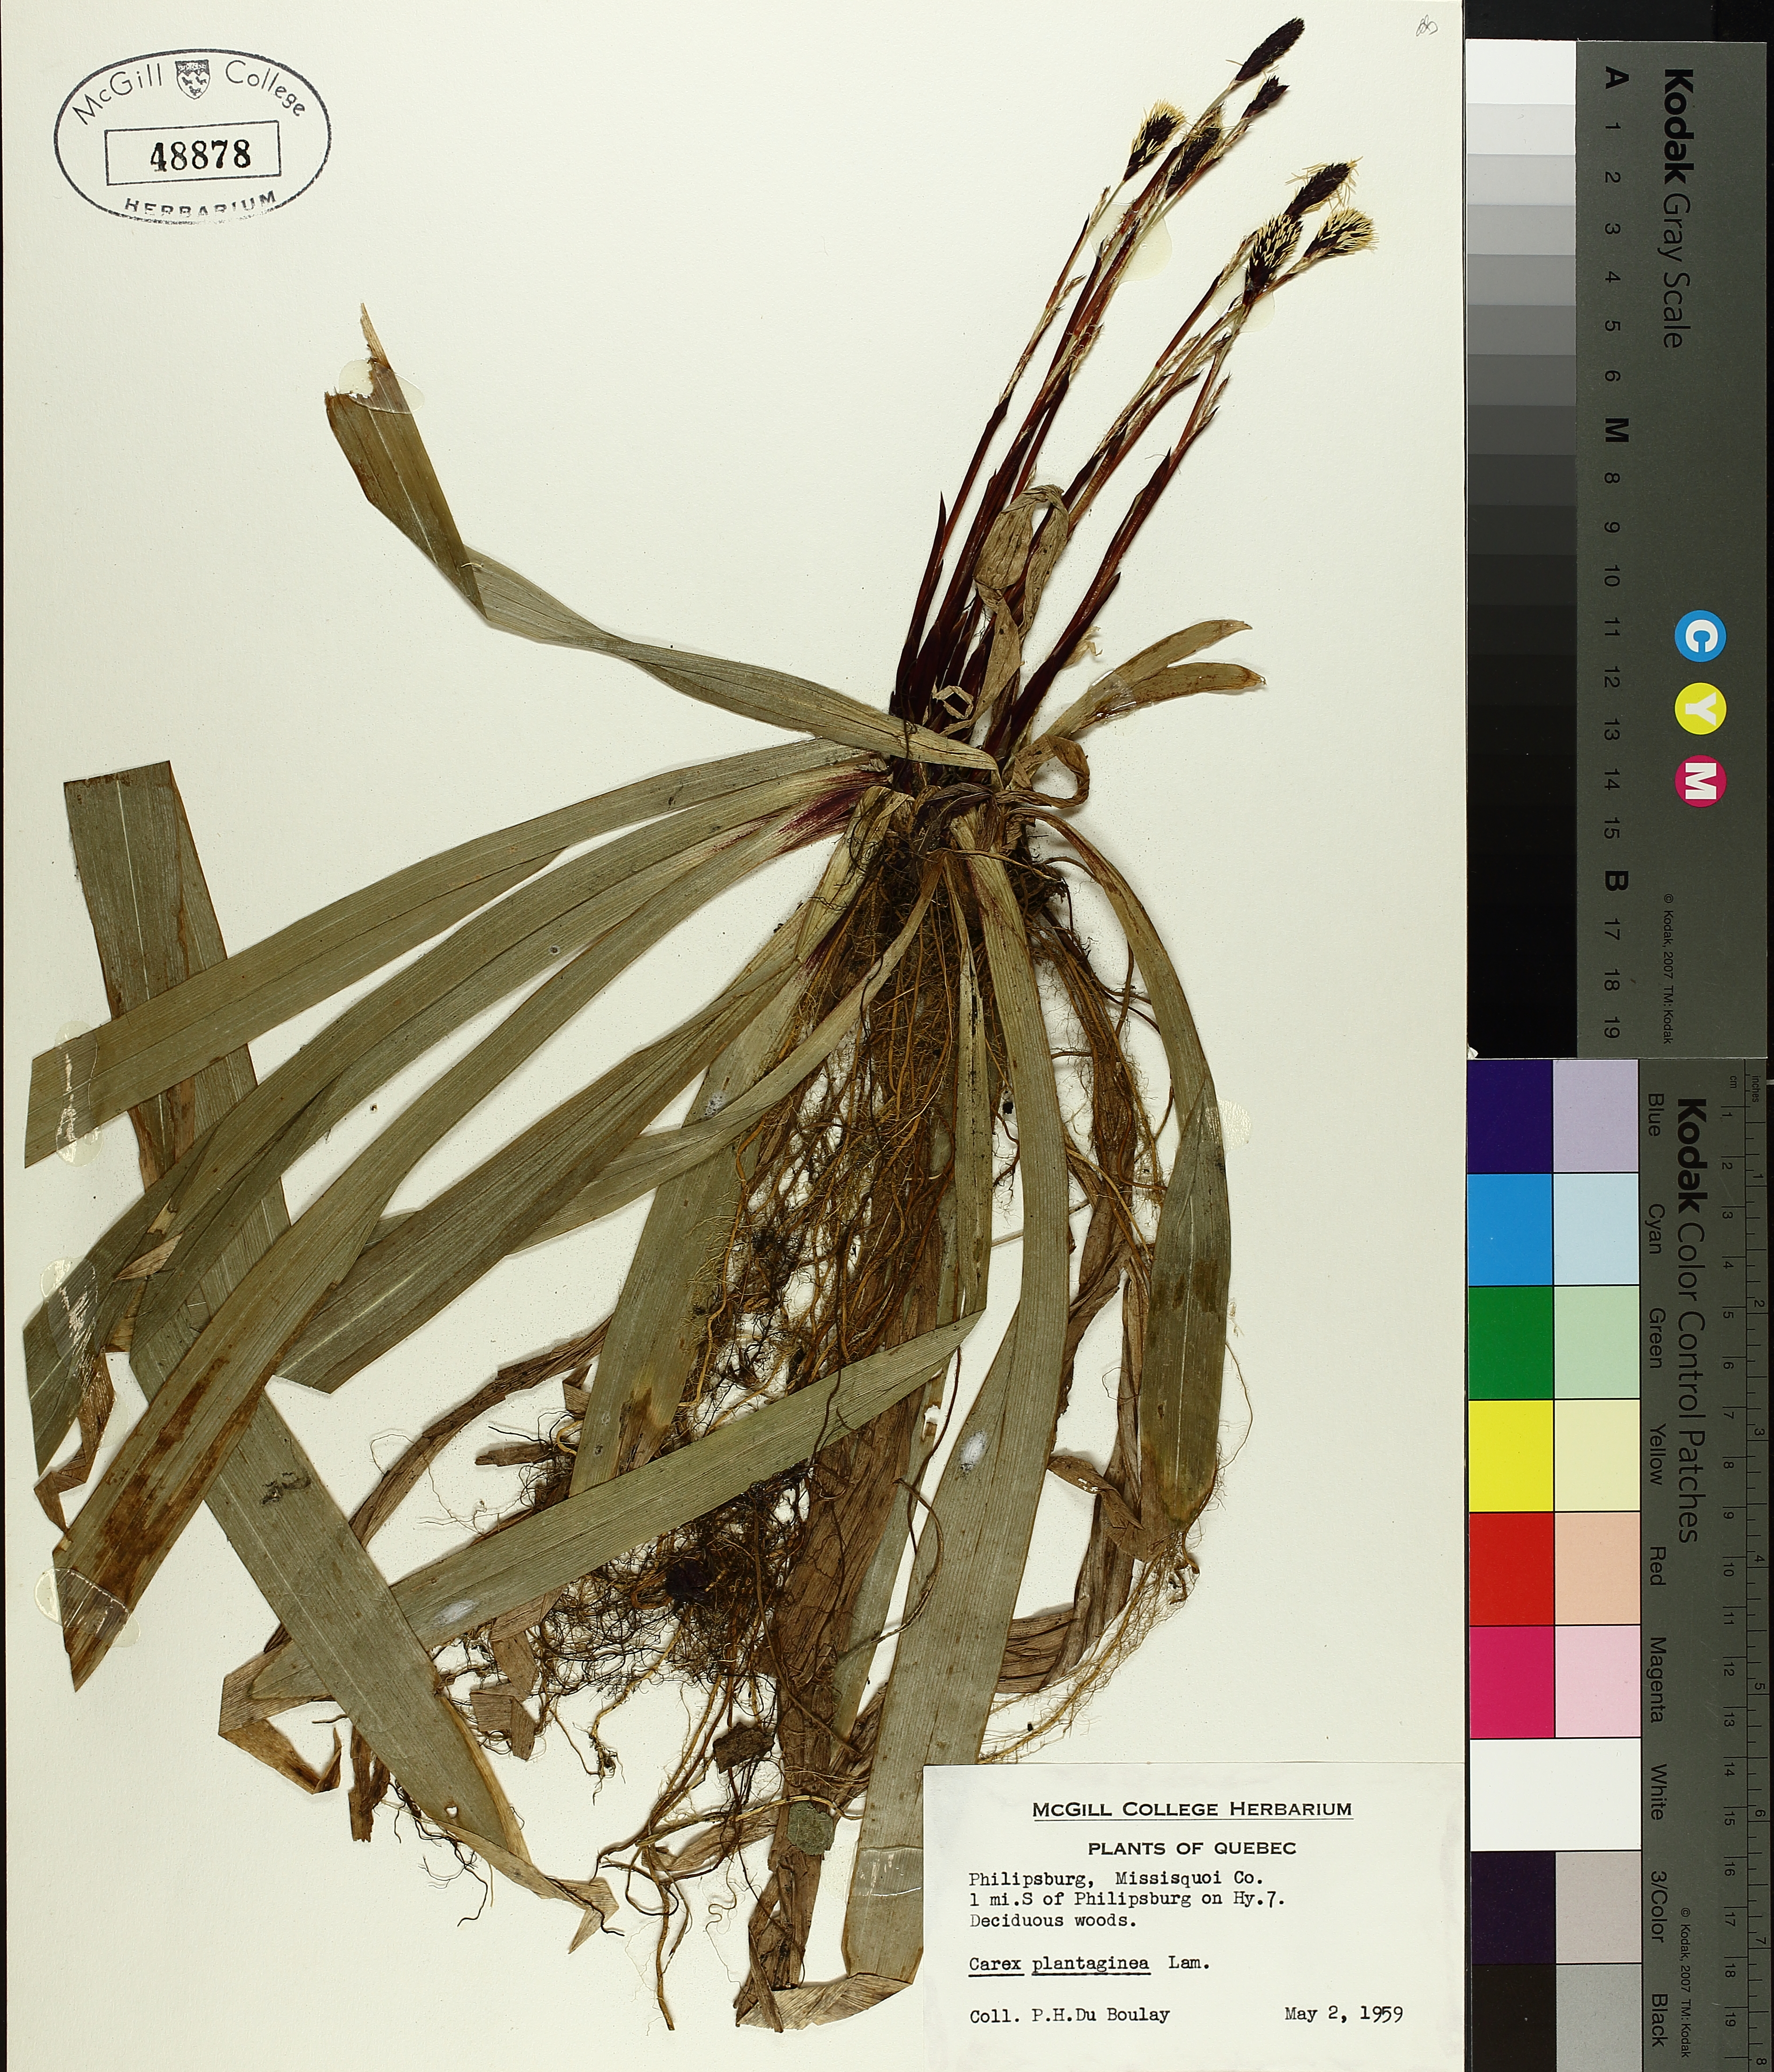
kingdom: Plantae
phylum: Tracheophyta
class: Liliopsida
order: Poales
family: Cyperaceae
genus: Carex
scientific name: Carex plantaginea
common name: Plantain-leaved sedge
